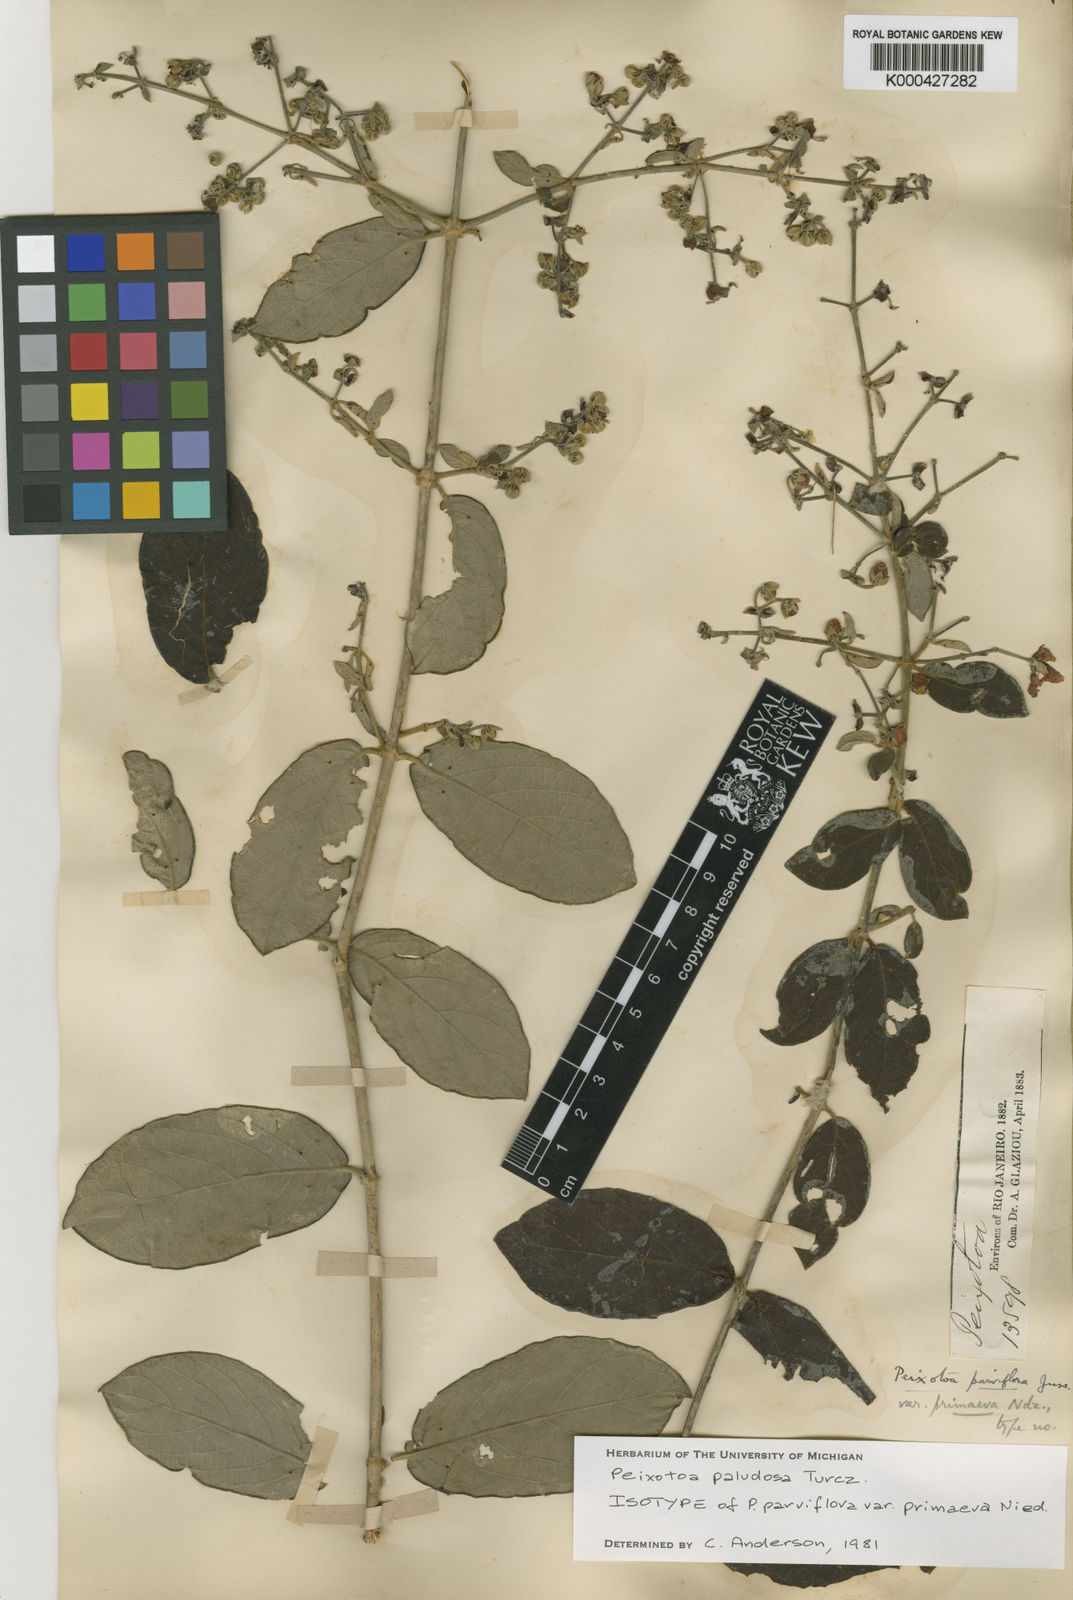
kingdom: Plantae
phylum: Tracheophyta
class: Magnoliopsida
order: Malpighiales
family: Malpighiaceae
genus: Peixotoa
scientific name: Peixotoa paludosa
